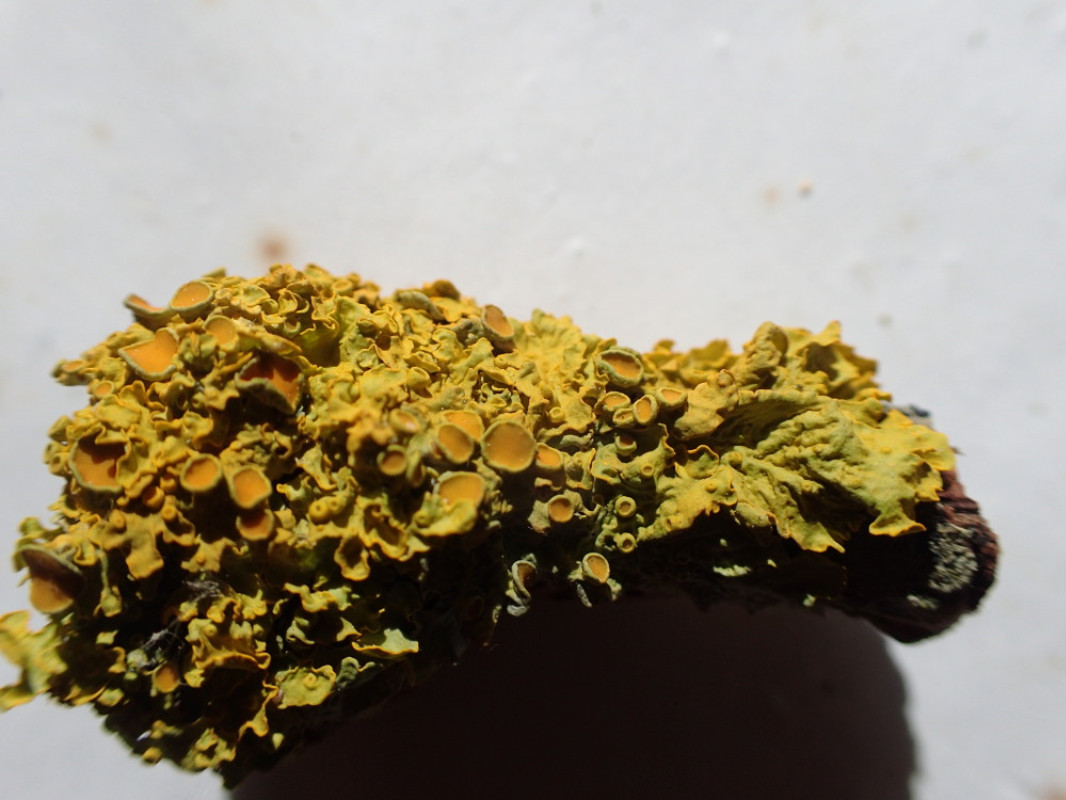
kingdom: Fungi
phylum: Ascomycota
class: Lecanoromycetes
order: Teloschistales
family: Teloschistaceae
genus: Xanthoria
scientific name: Xanthoria parietina
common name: almindelig væggelav
